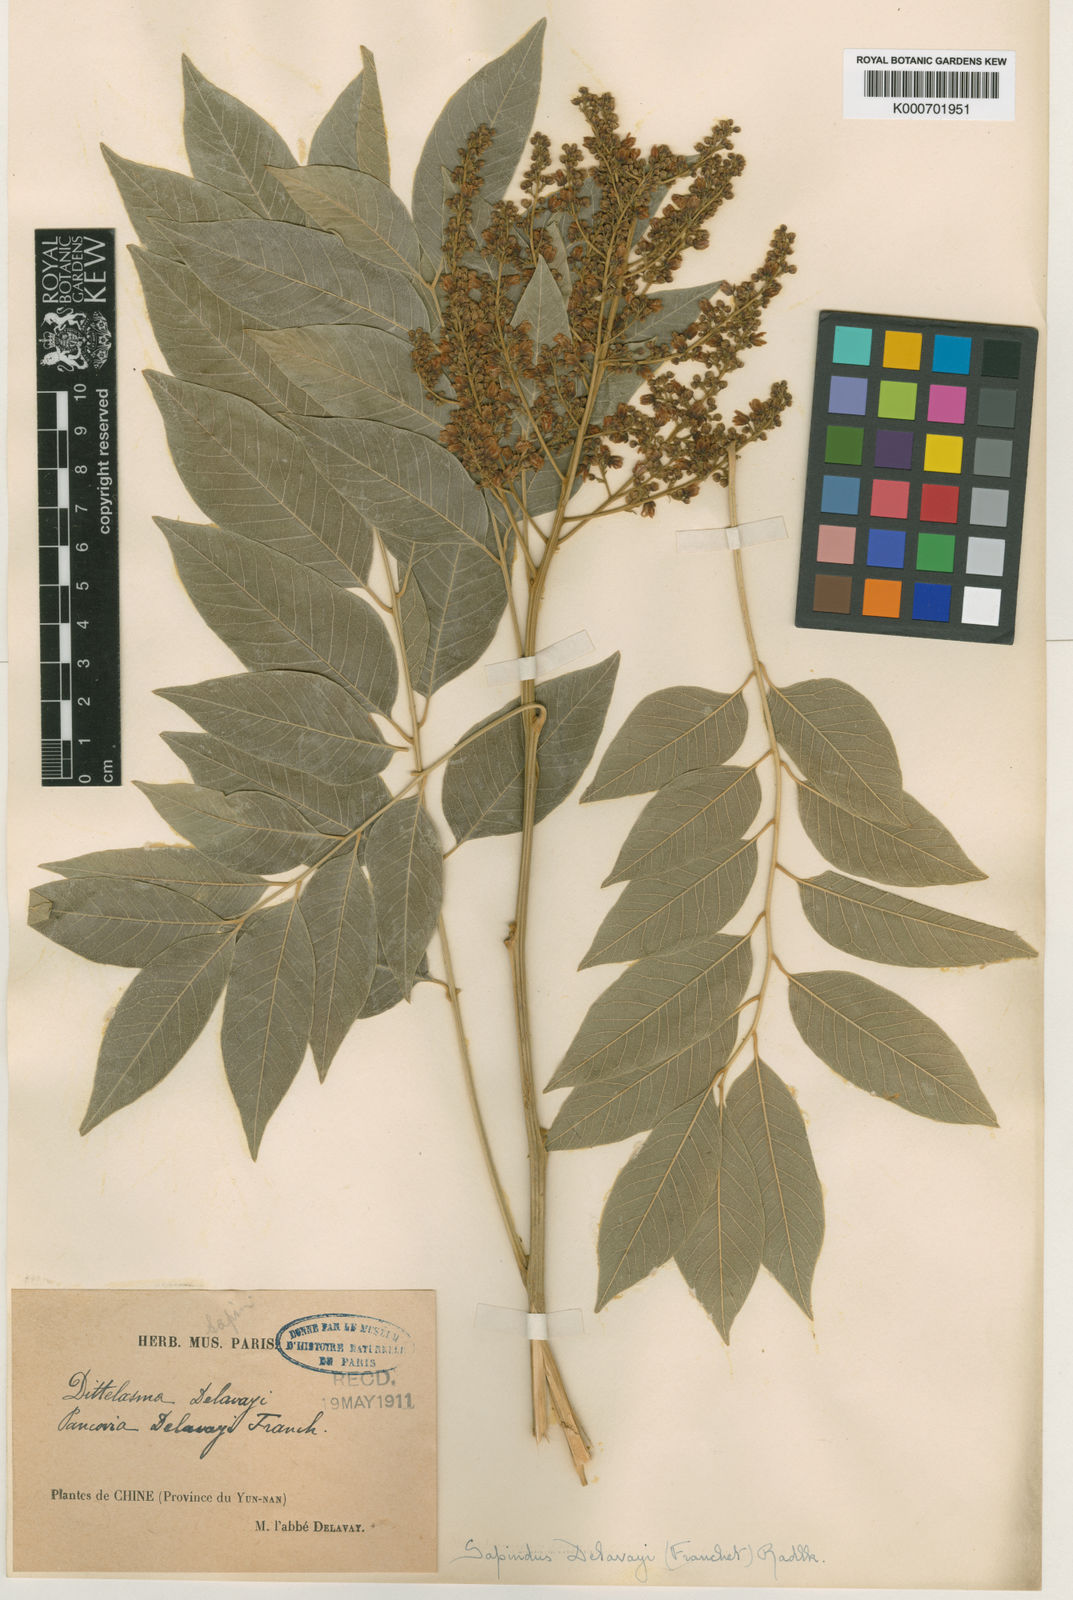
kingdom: Plantae
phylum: Tracheophyta
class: Magnoliopsida
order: Sapindales
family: Sapindaceae
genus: Sapindus
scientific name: Sapindus delavayi
